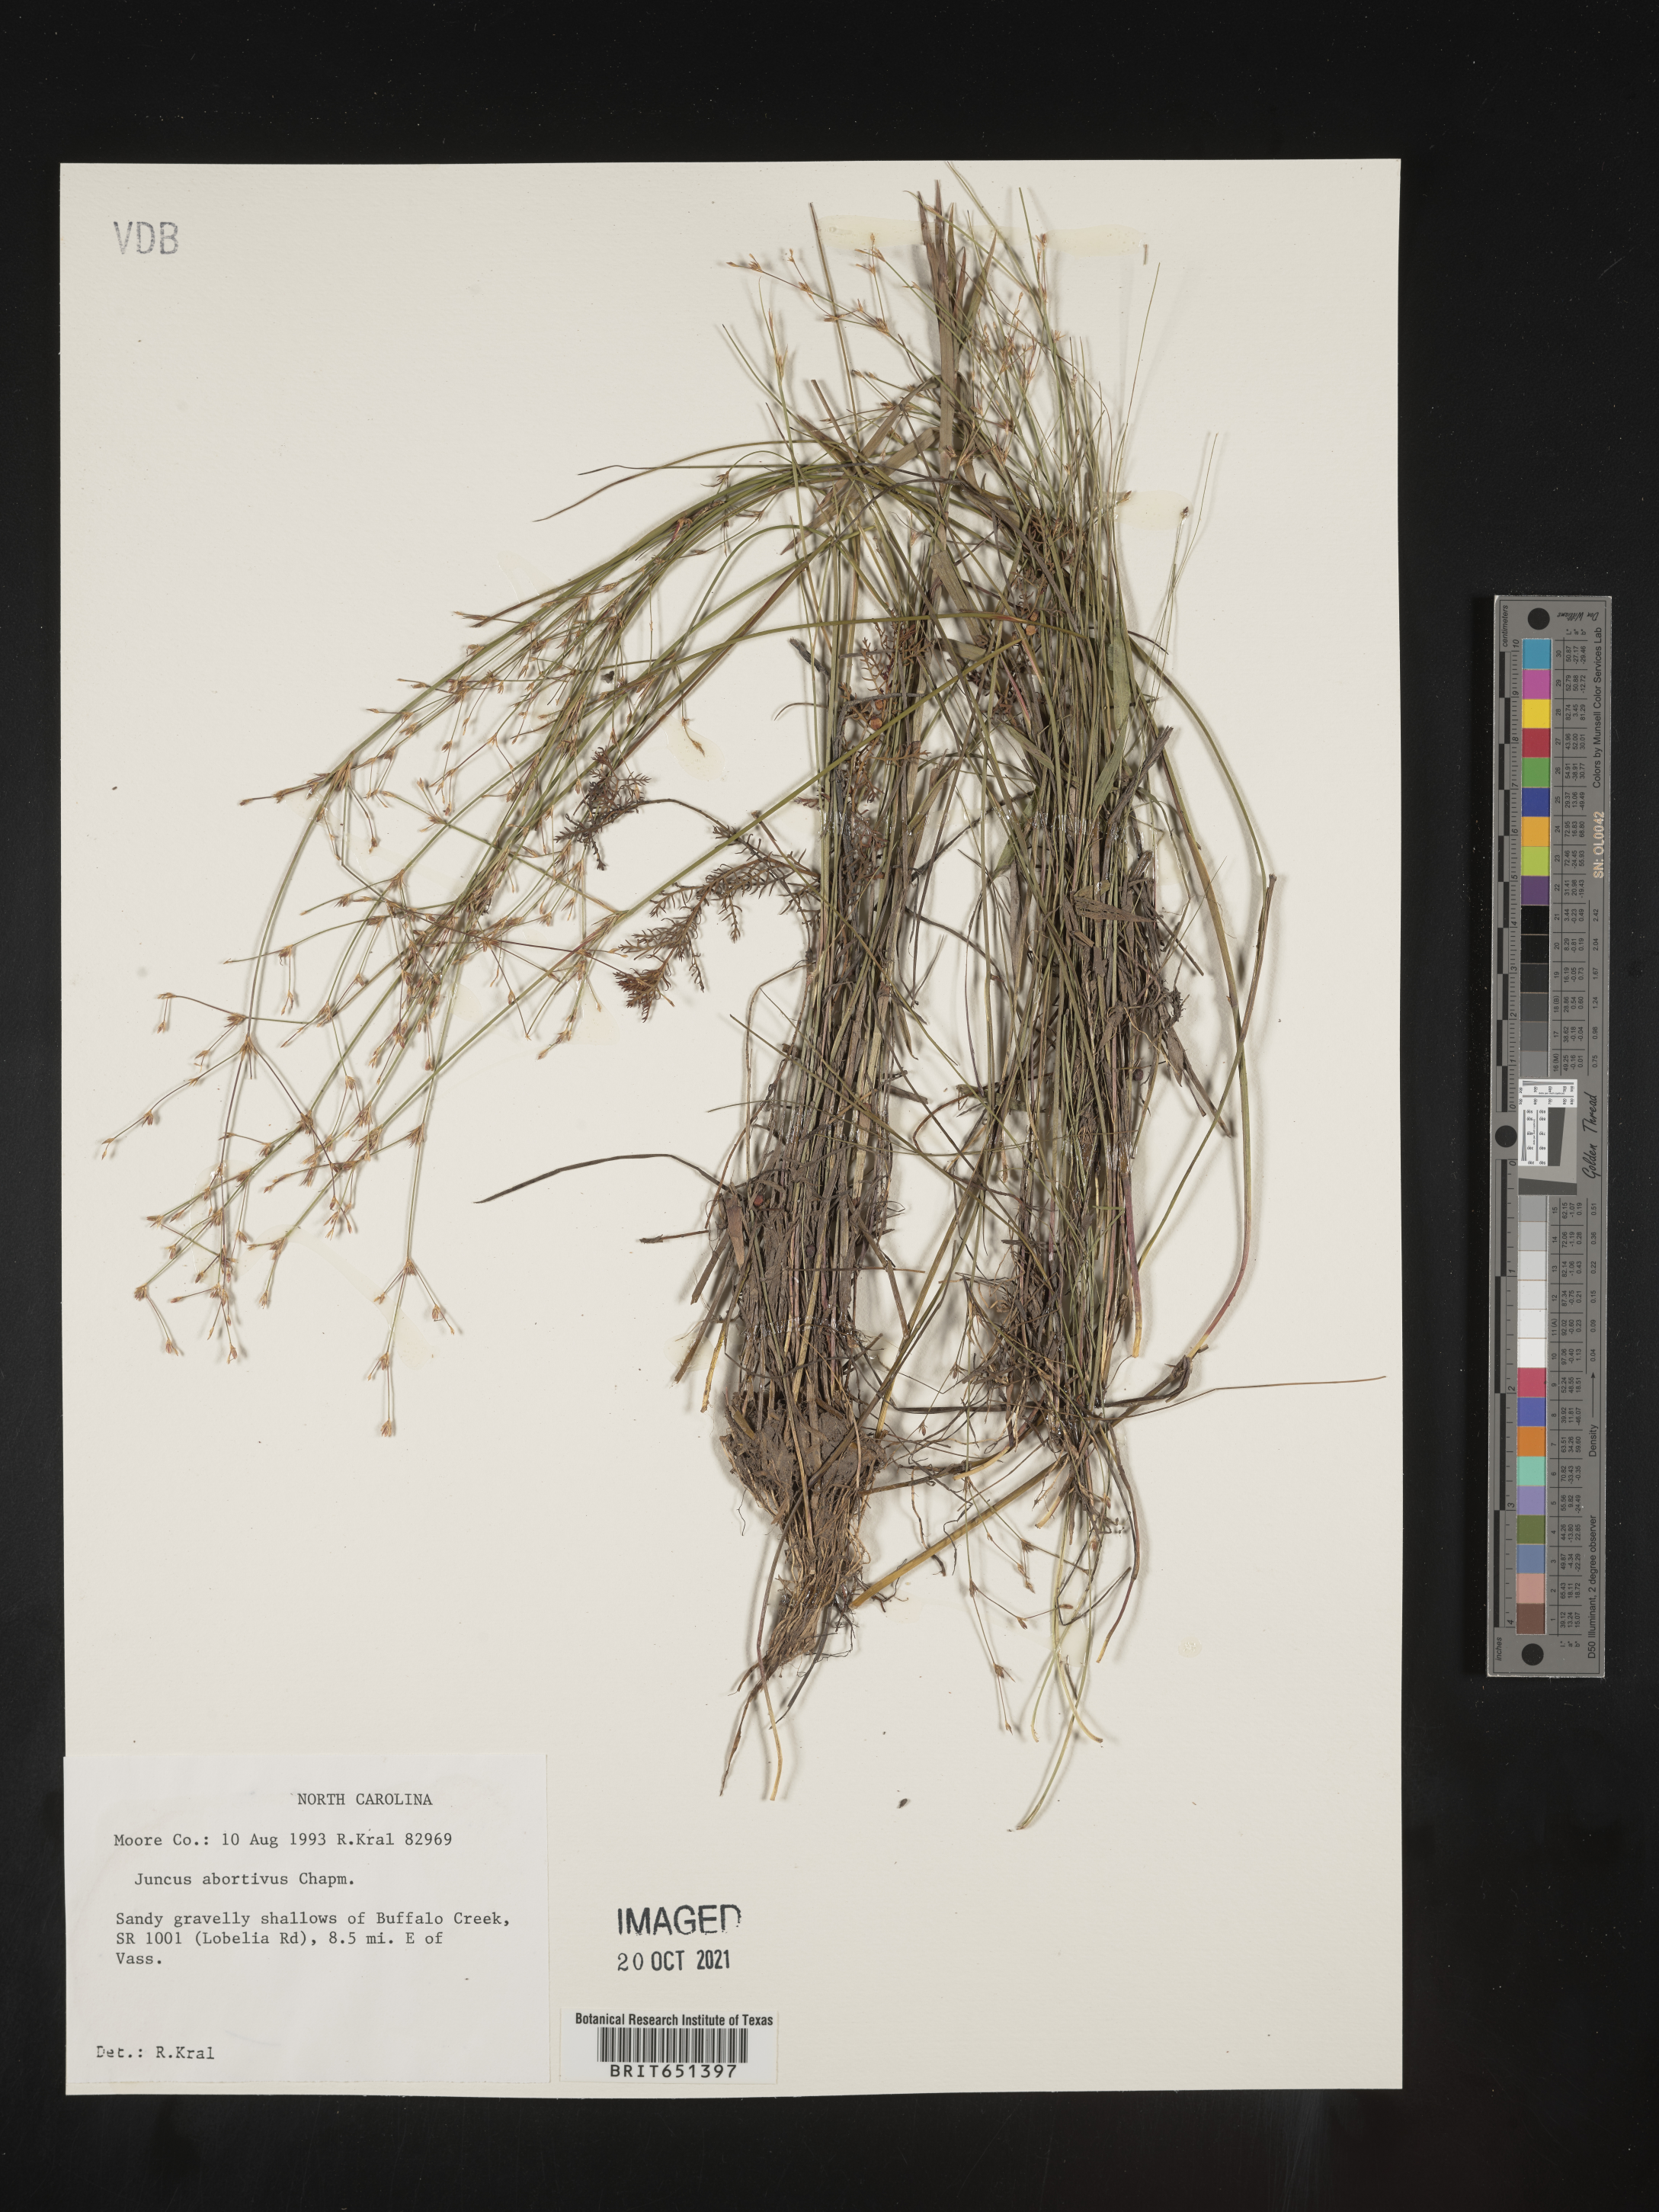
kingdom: Plantae
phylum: Tracheophyta
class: Liliopsida
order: Poales
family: Juncaceae
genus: Juncus
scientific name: Juncus abortivus
